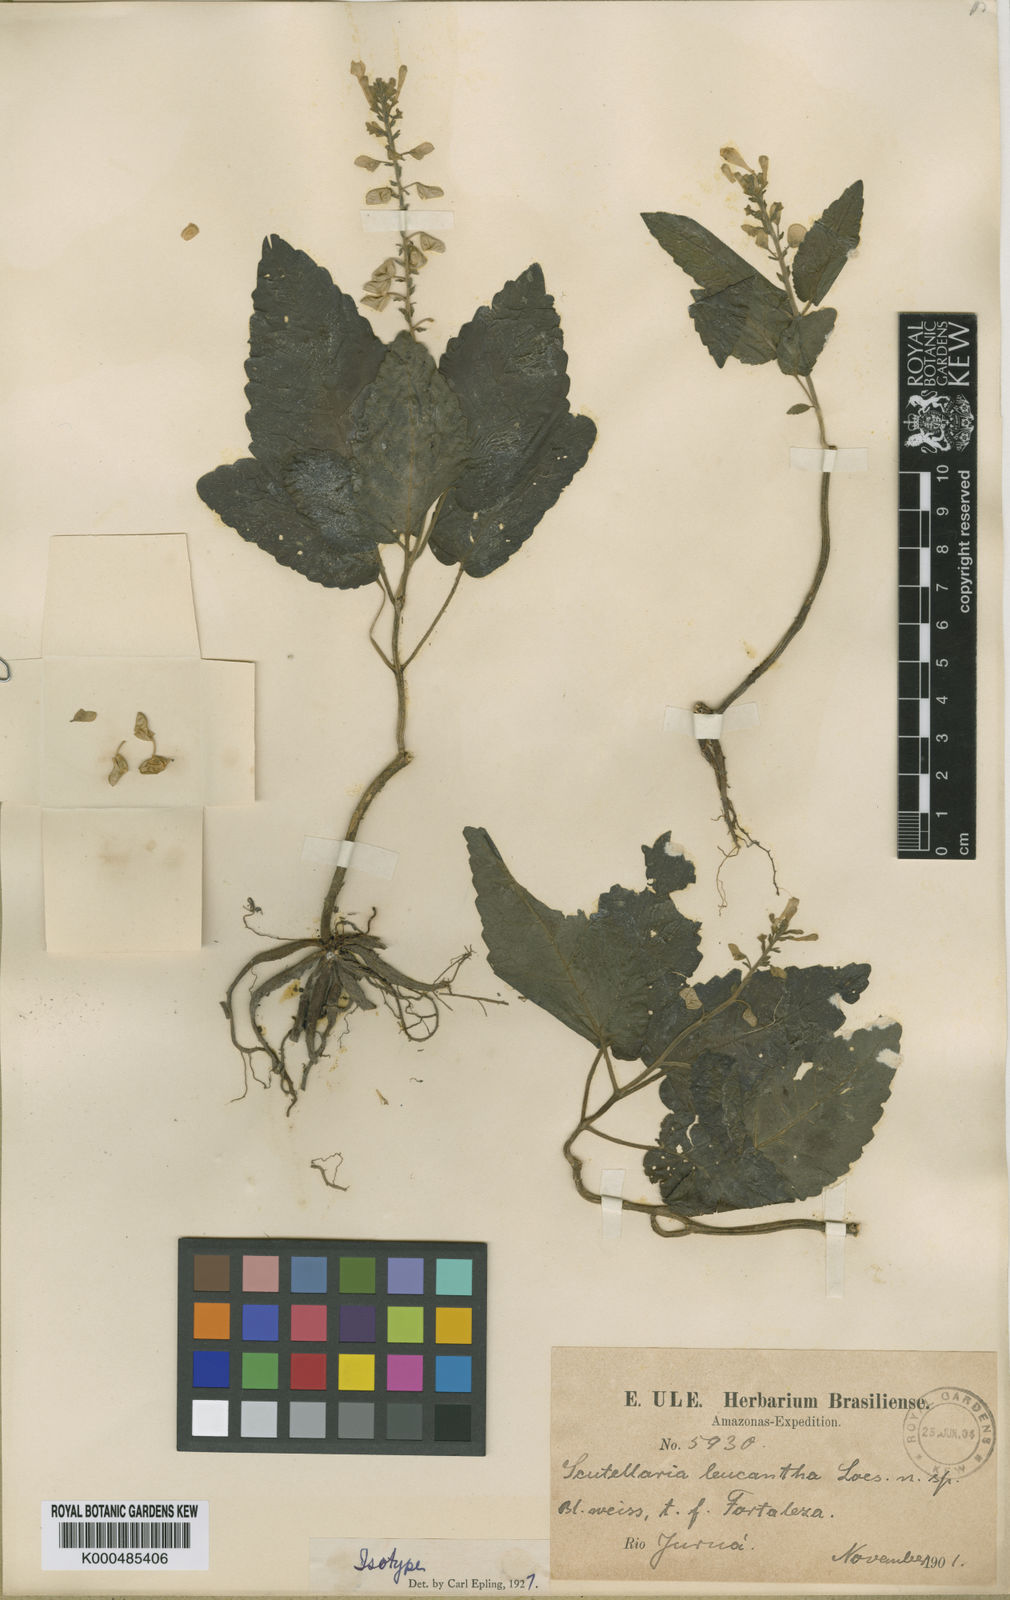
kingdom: Plantae
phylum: Tracheophyta
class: Magnoliopsida
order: Lamiales
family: Lamiaceae
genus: Scutellaria
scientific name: Scutellaria leucantha
